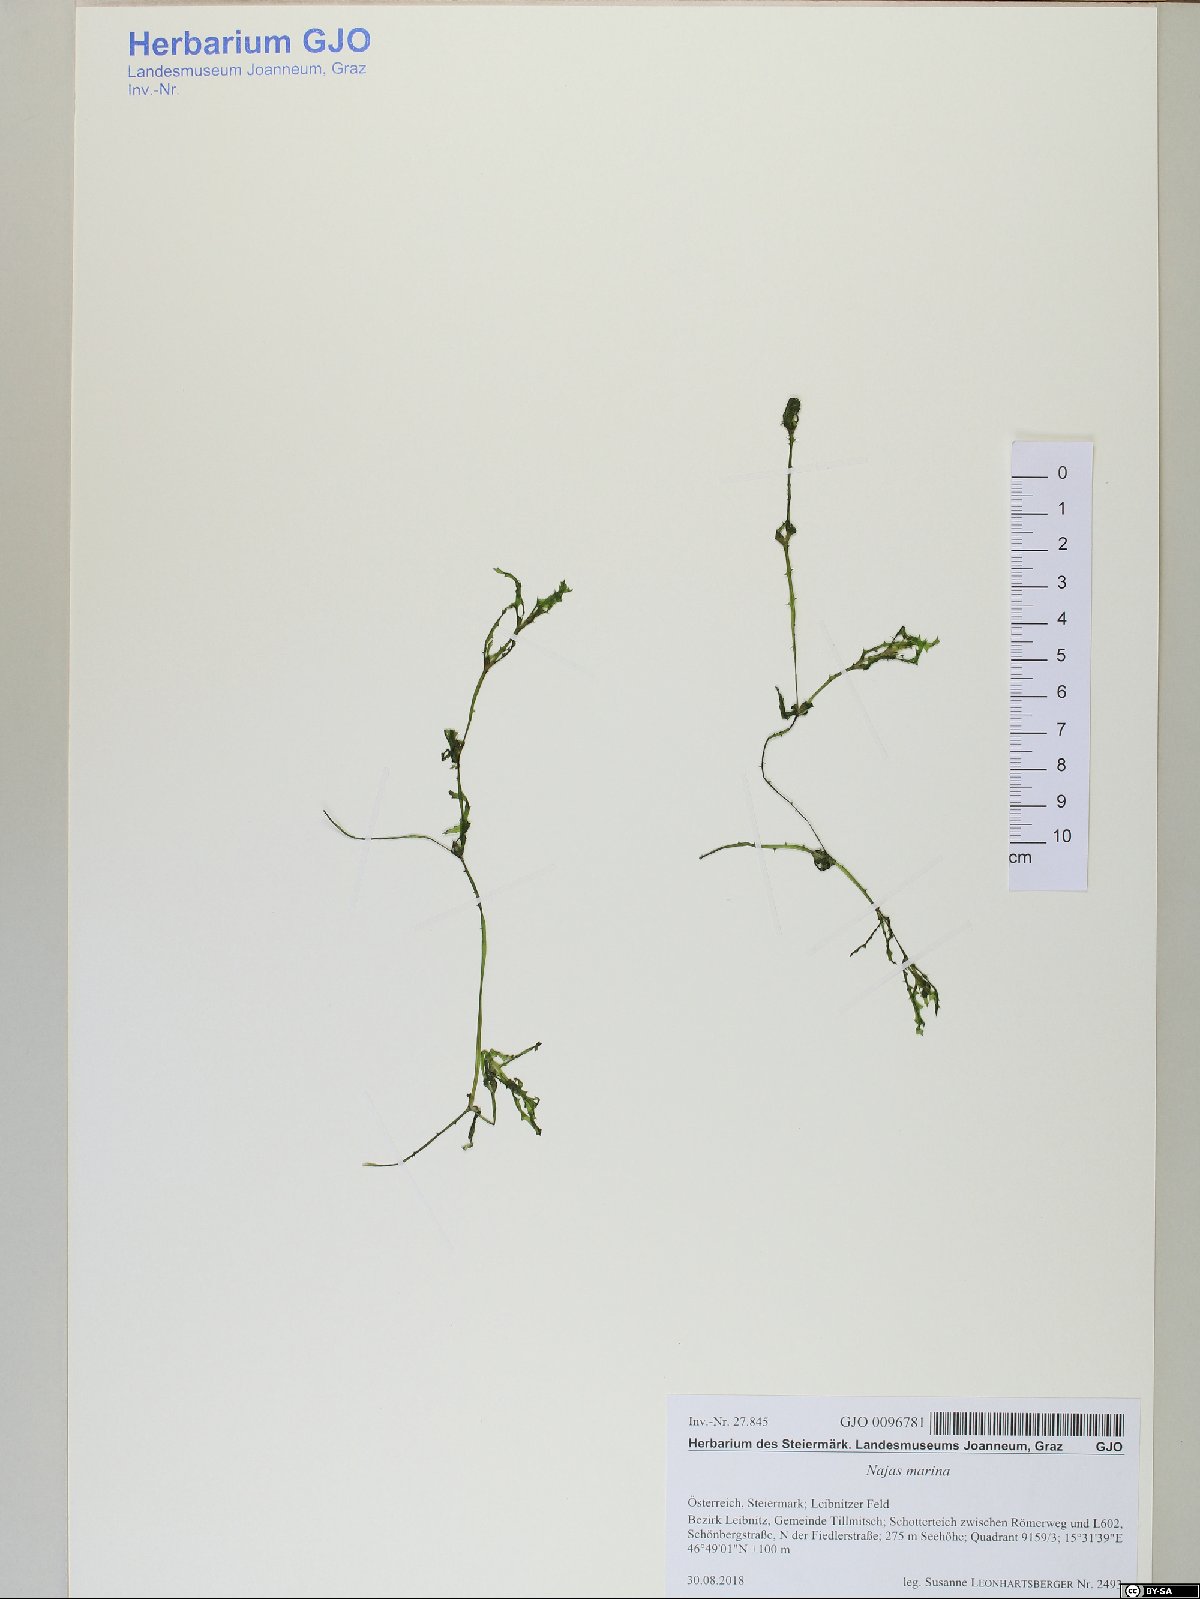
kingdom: Plantae
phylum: Tracheophyta
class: Liliopsida
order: Alismatales
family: Hydrocharitaceae
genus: Najas
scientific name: Najas marina
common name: Holly-leaved naiad
